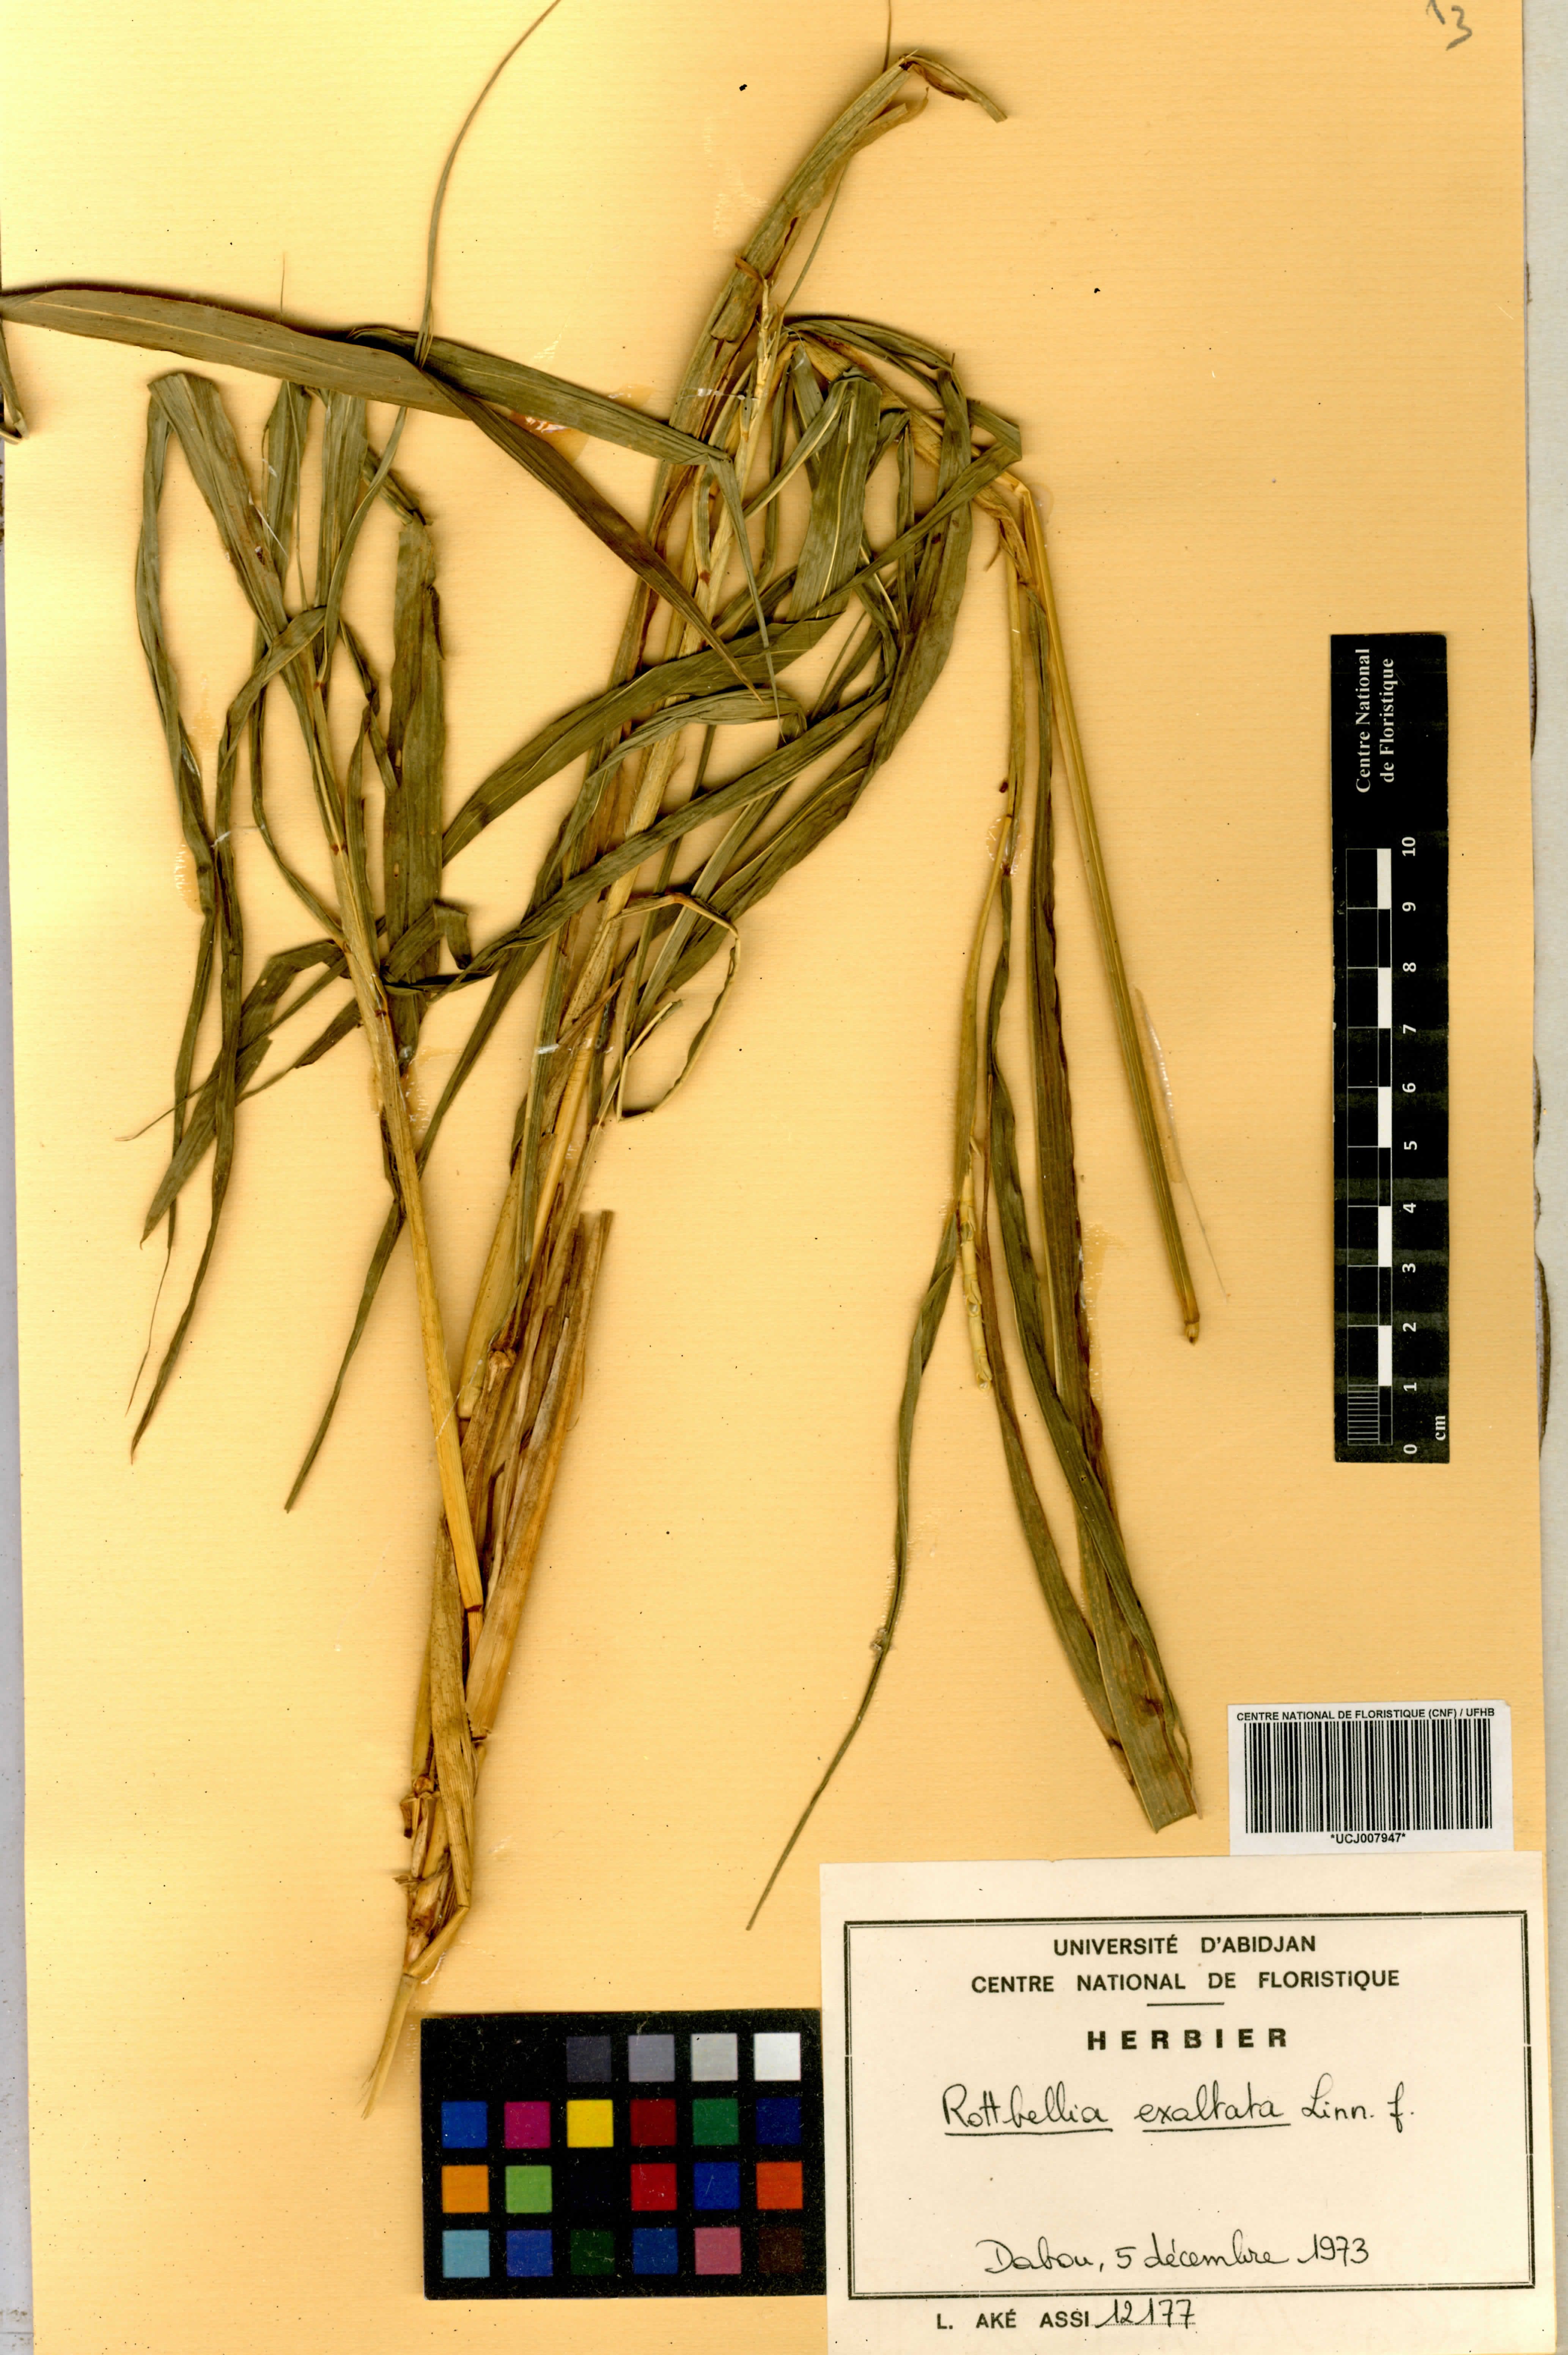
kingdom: Plantae
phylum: Tracheophyta
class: Liliopsida
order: Poales
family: Poaceae
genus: Rottboellia
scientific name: Rottboellia
